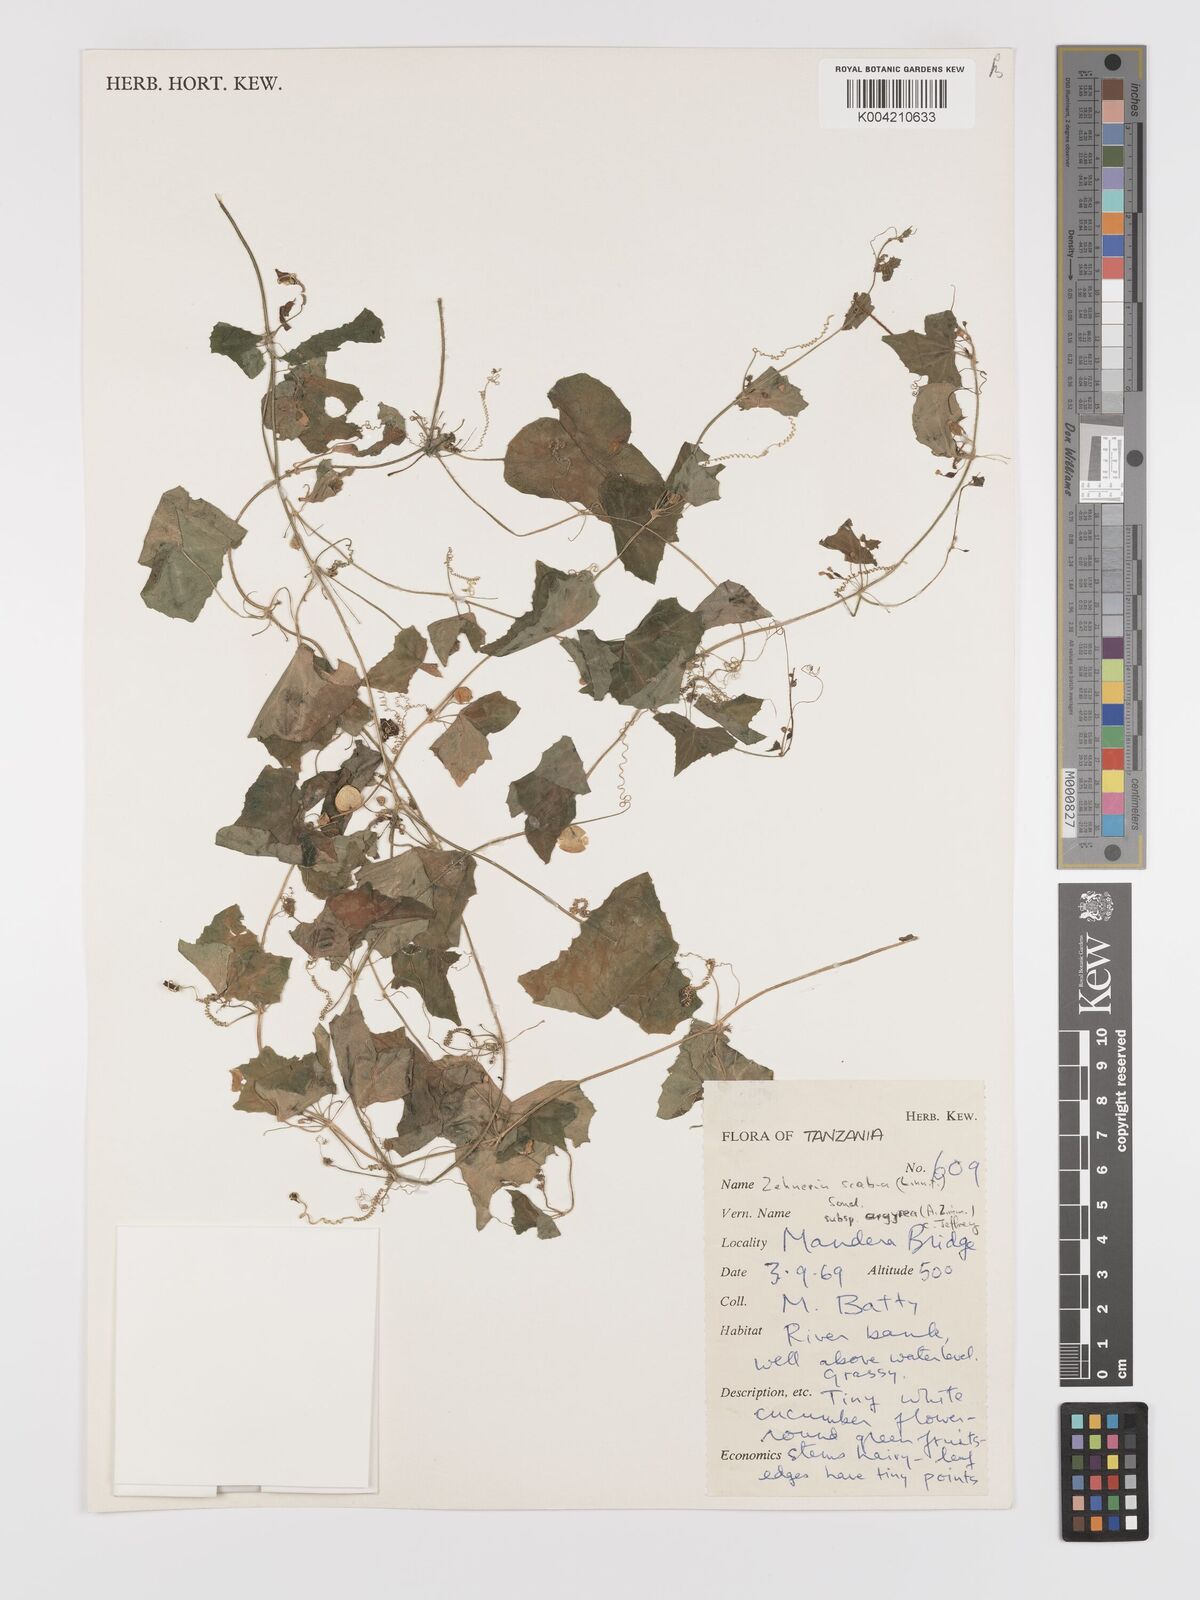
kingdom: Plantae
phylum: Tracheophyta
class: Magnoliopsida
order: Cucurbitales
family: Cucurbitaceae
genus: Zehneria
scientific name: Zehneria scabra
